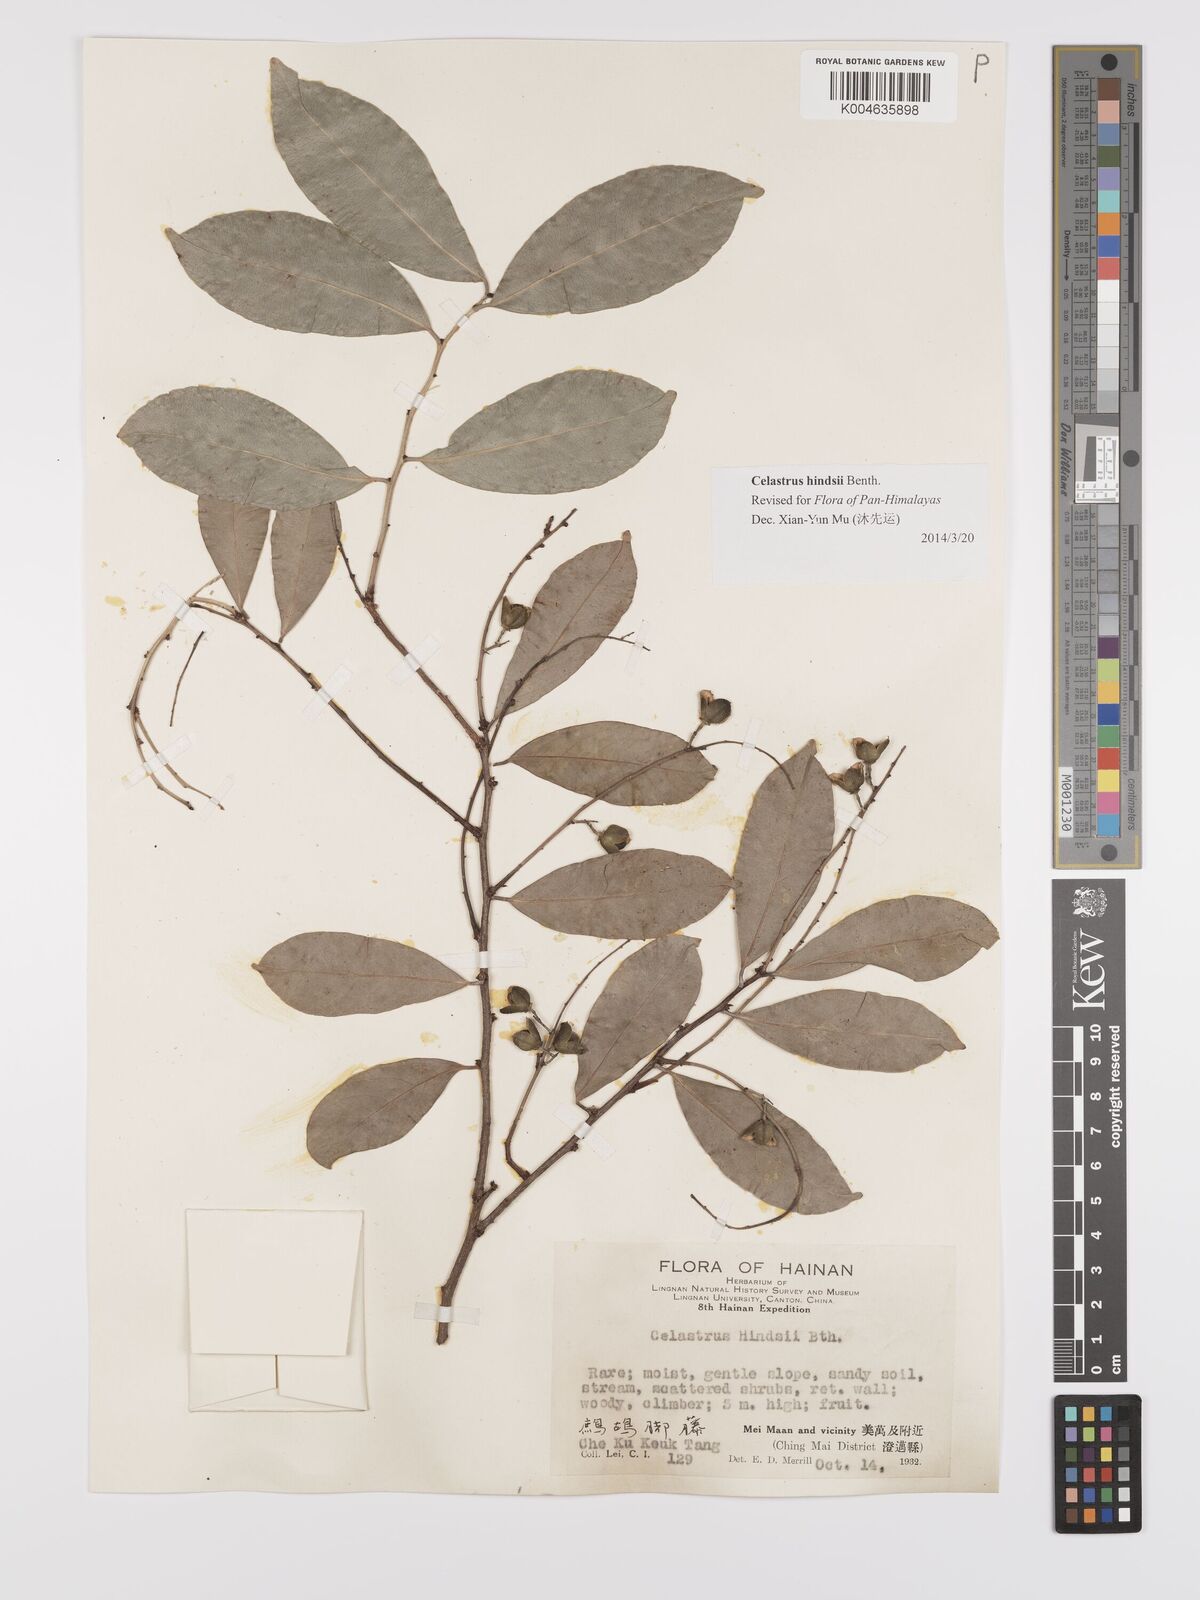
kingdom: Plantae
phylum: Tracheophyta
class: Magnoliopsida
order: Celastrales
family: Celastraceae
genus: Celastrus
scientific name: Celastrus hindsii
